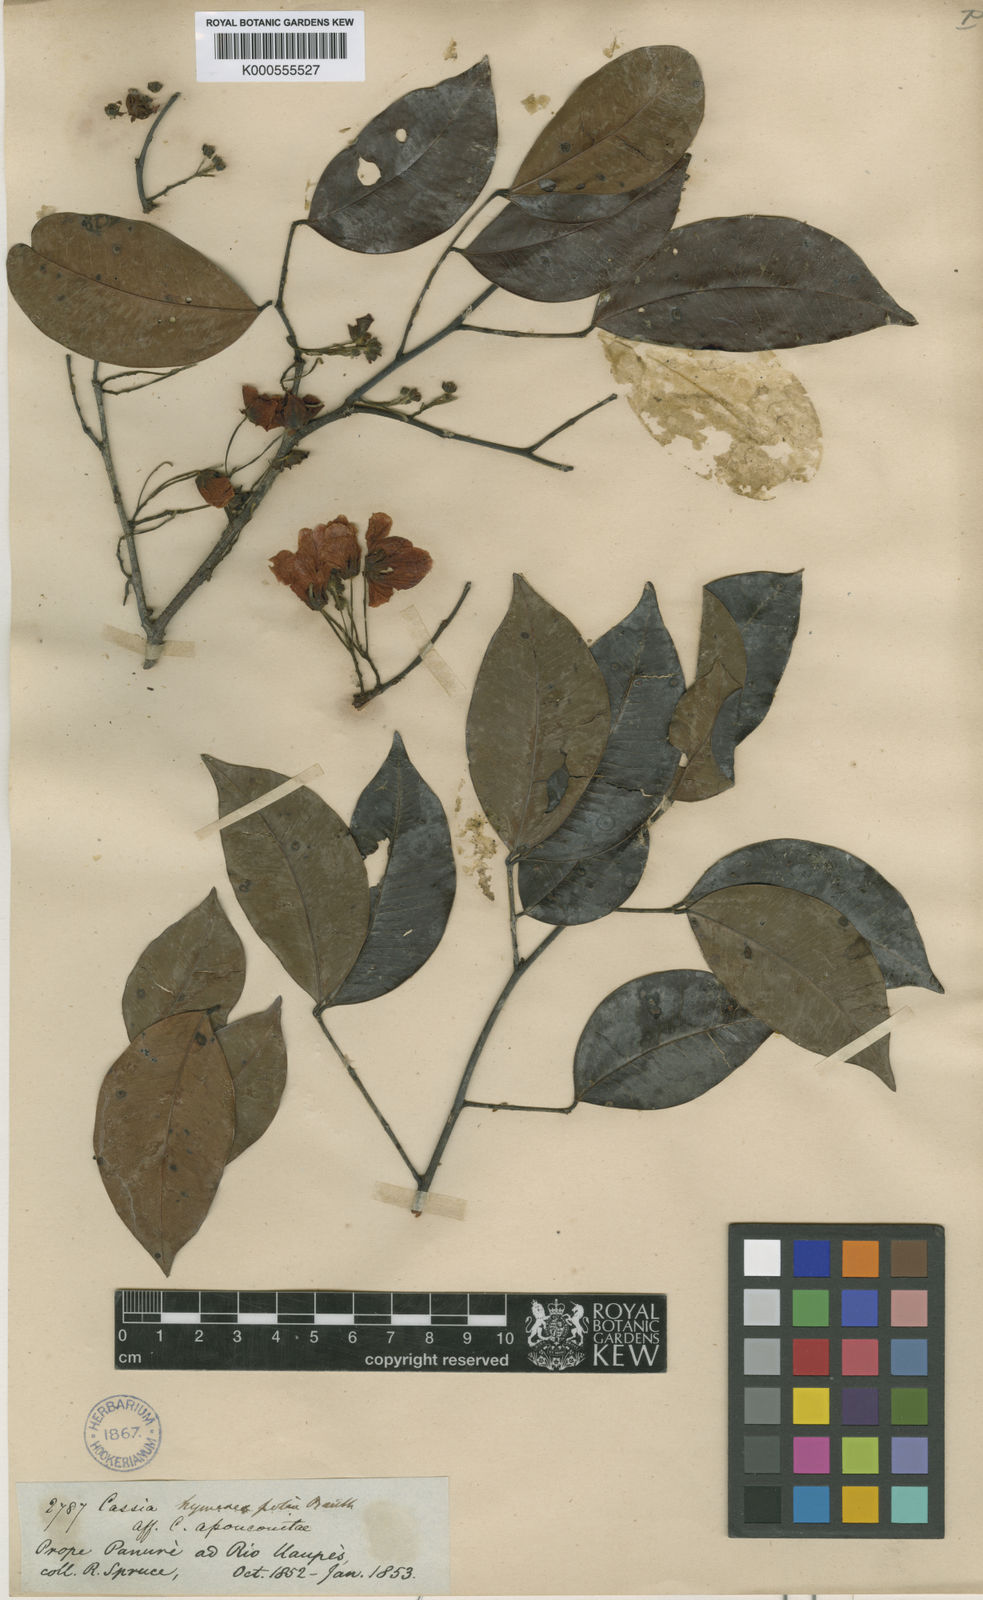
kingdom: Plantae
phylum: Tracheophyta
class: Magnoliopsida
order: Fabales
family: Fabaceae
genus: Chamaecrista
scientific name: Chamaecrista hymenaeifolia
